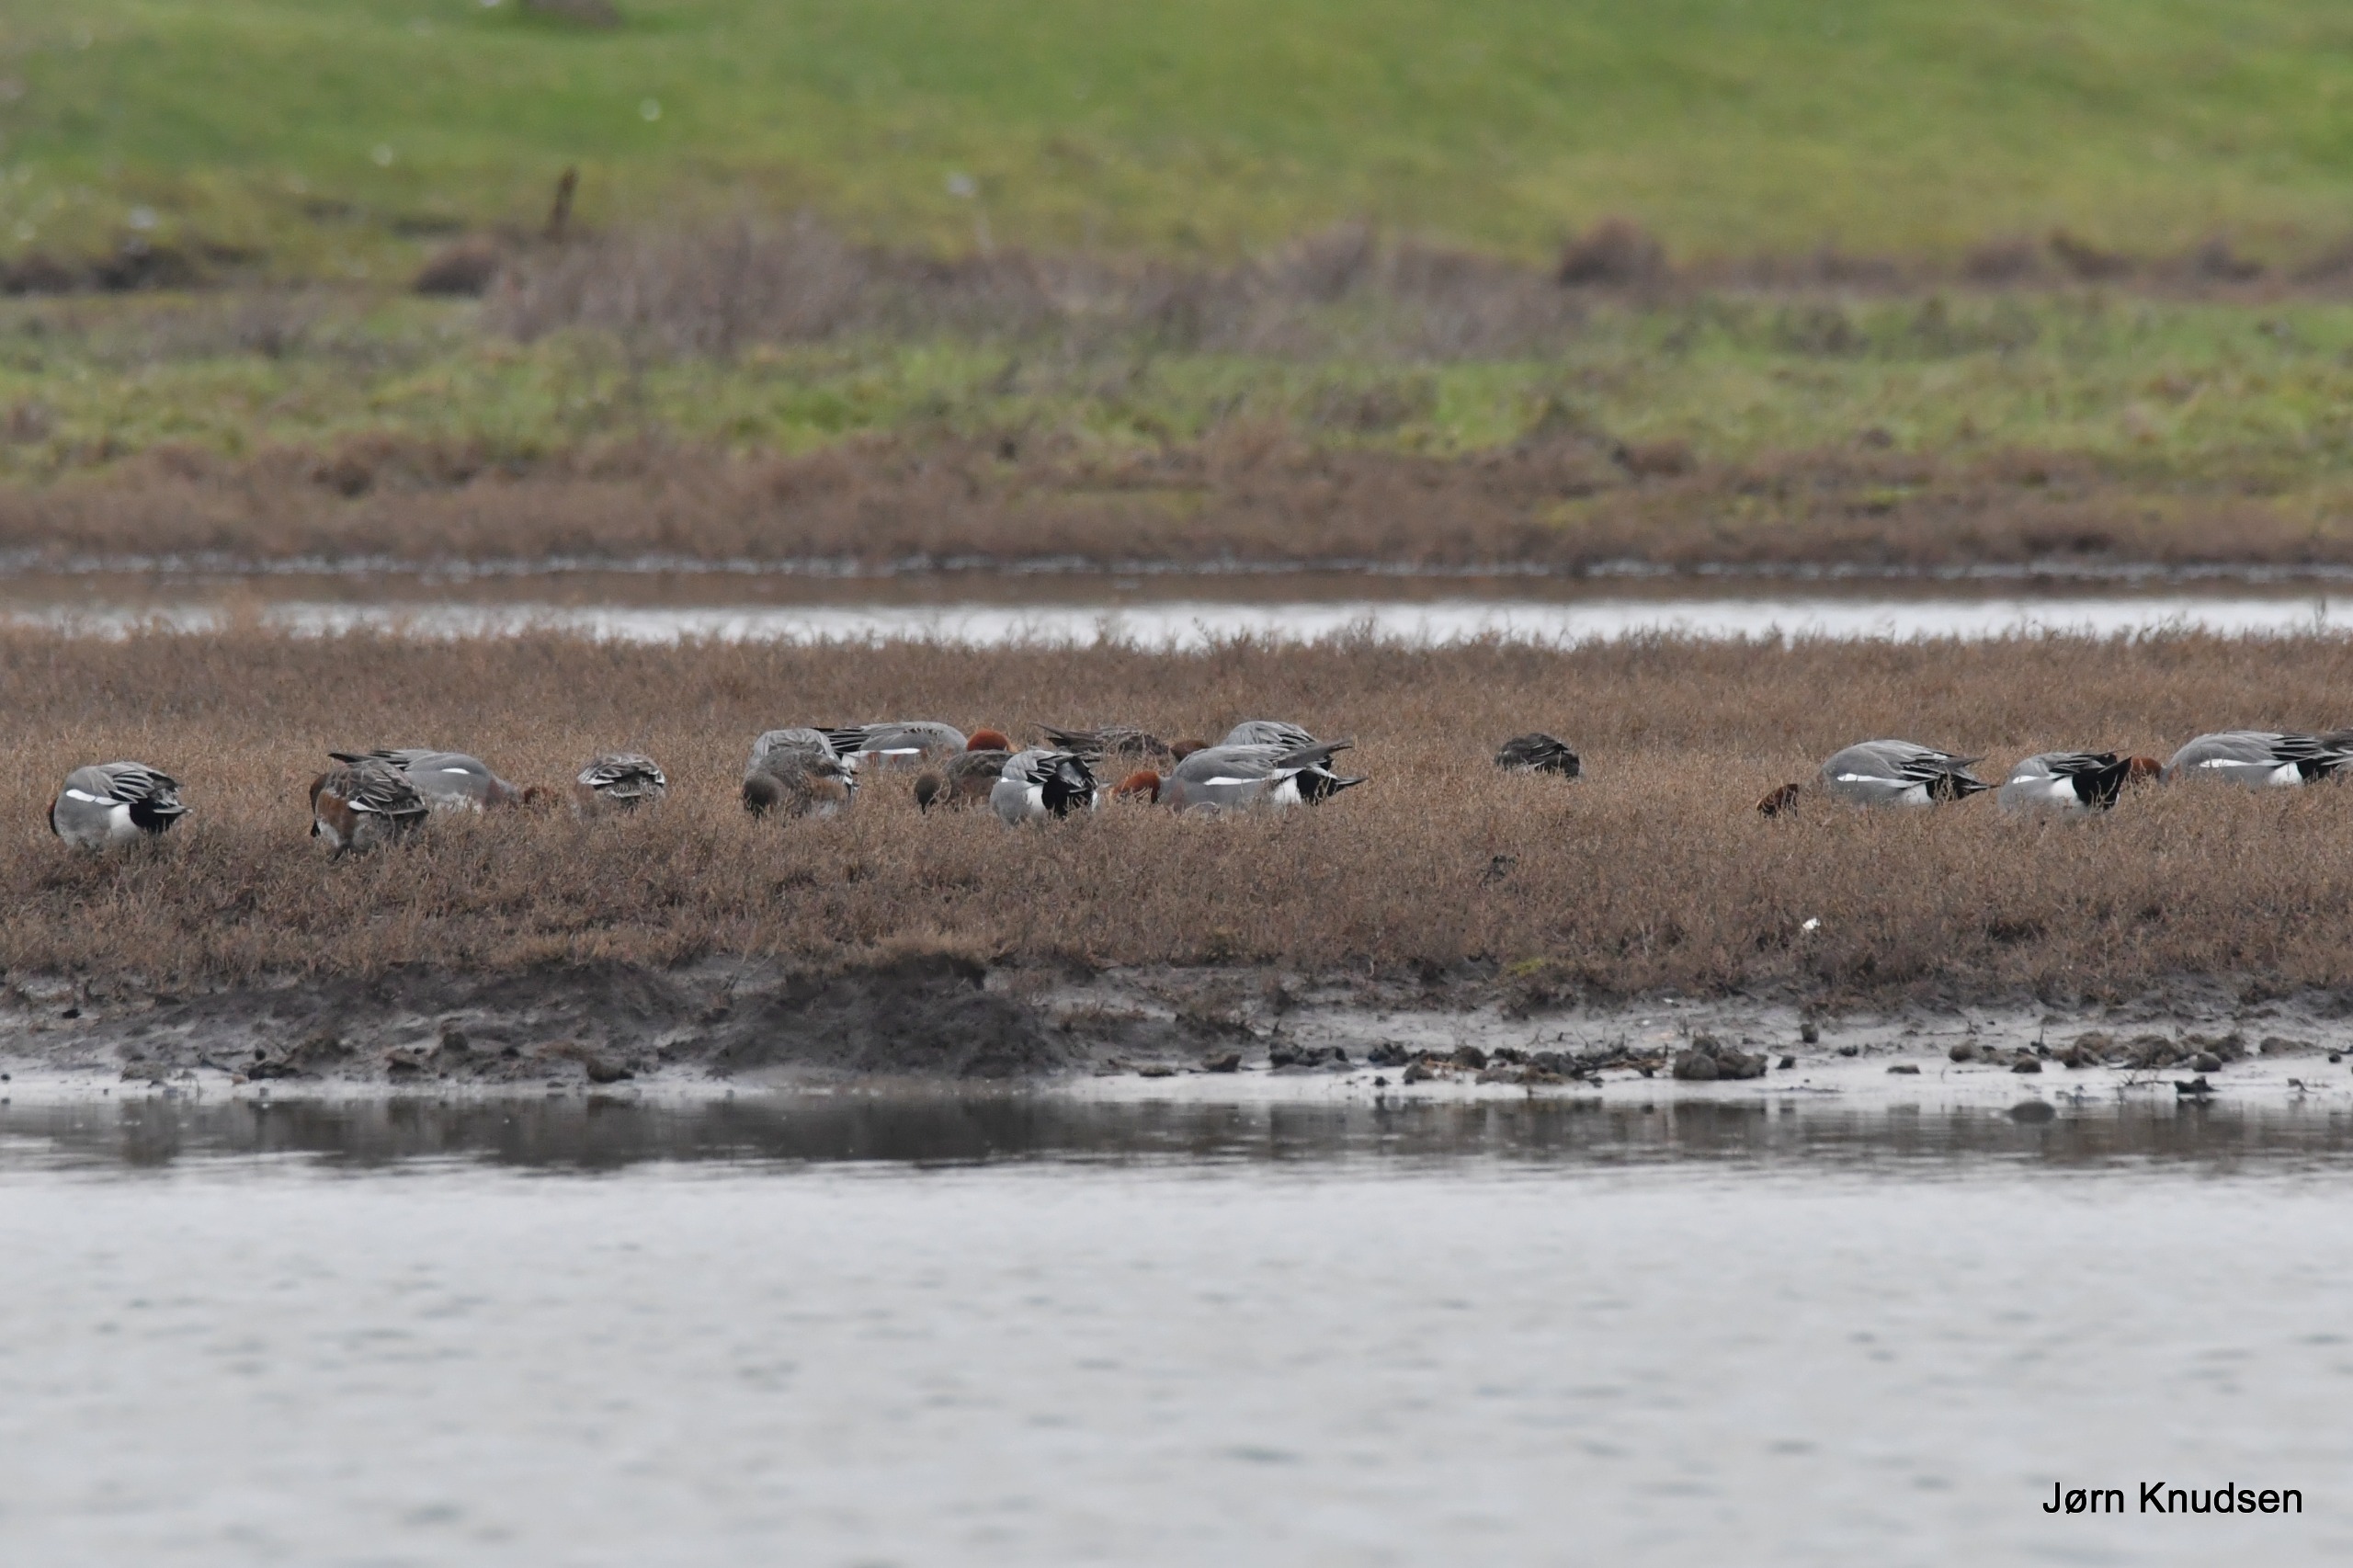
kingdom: Animalia
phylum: Chordata
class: Aves
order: Anseriformes
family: Anatidae
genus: Mareca
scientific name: Mareca penelope
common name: Pibeand
